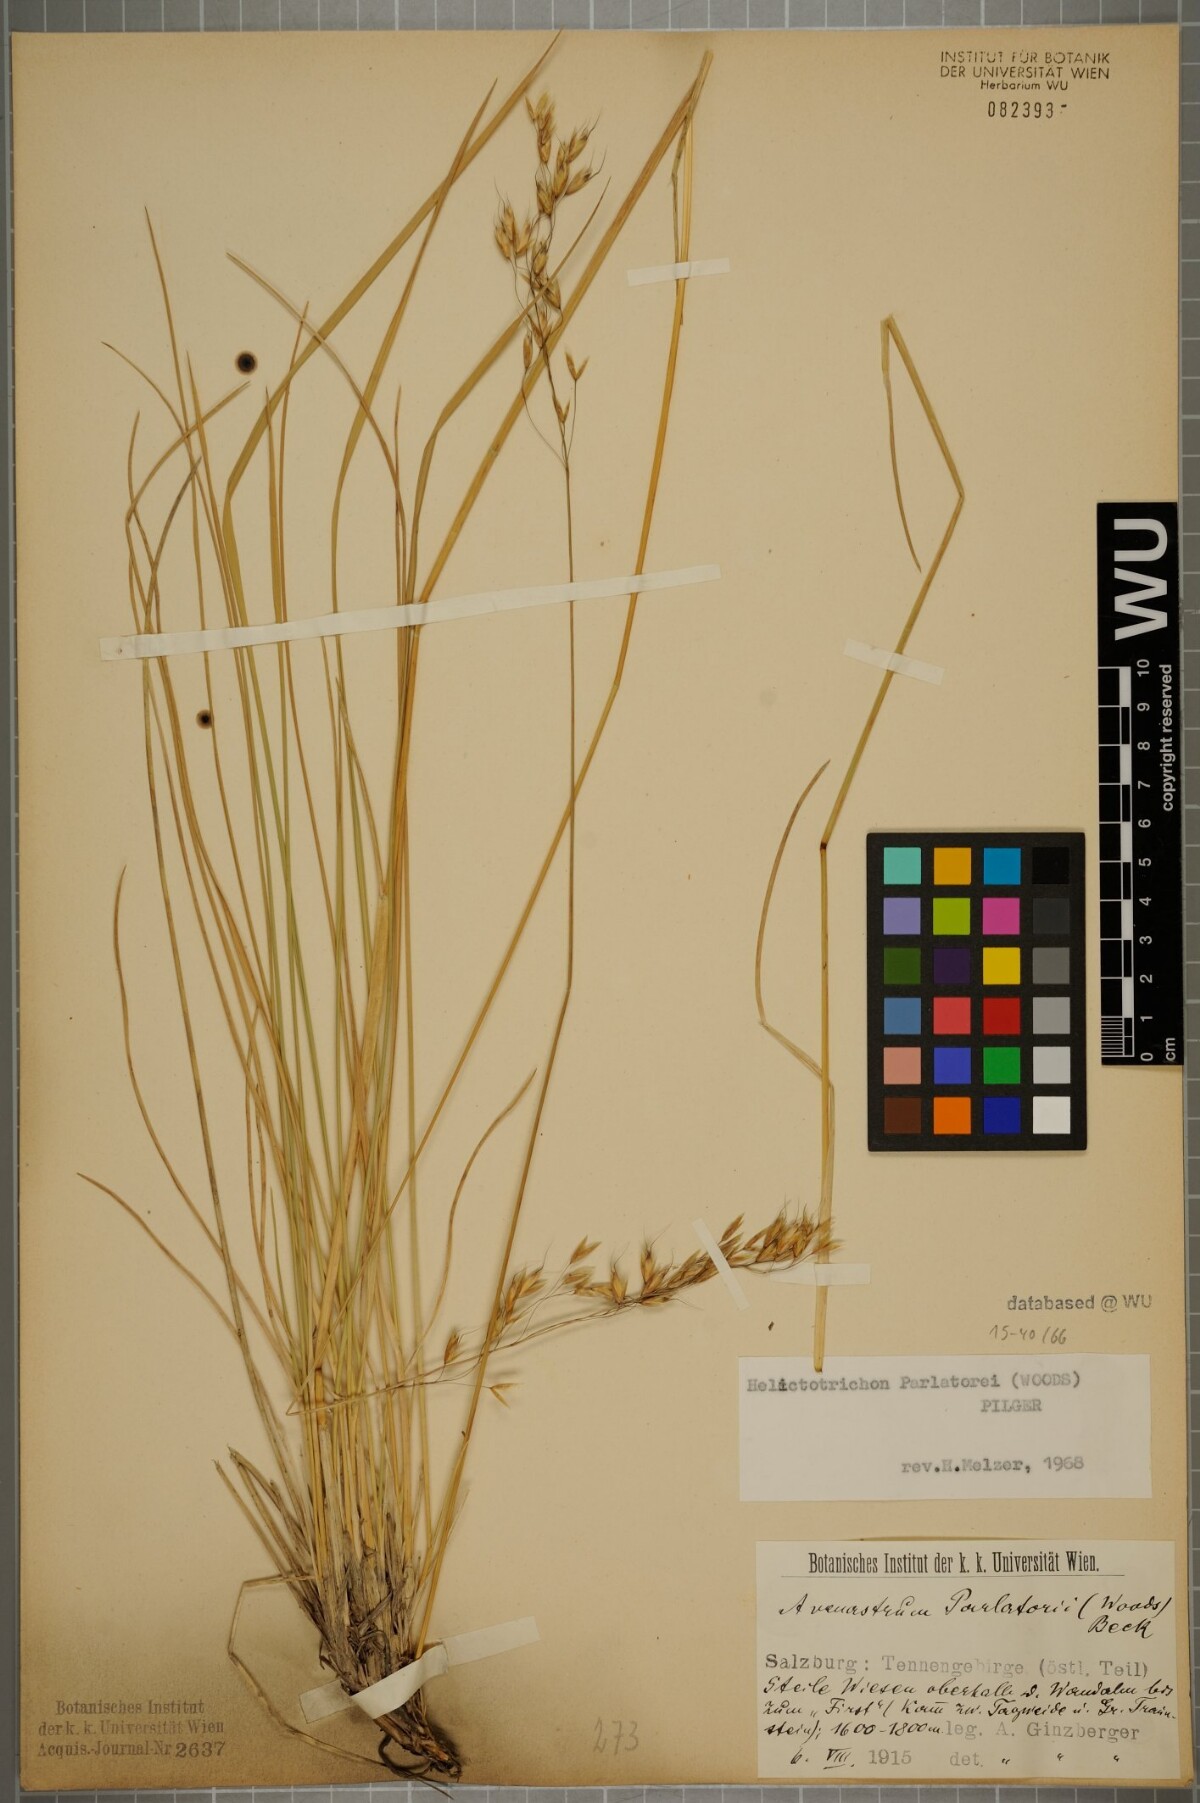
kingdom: Plantae
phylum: Tracheophyta
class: Liliopsida
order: Poales
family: Poaceae
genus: Helictotrichon
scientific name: Helictotrichon parlatorei
